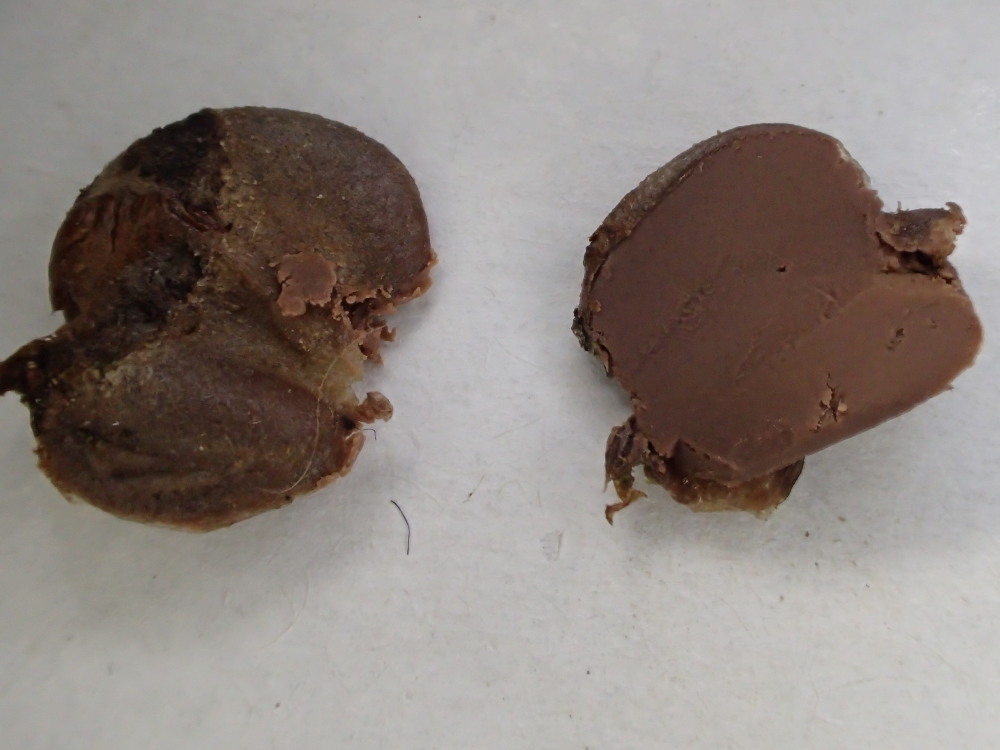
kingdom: Protozoa
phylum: Mycetozoa
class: Myxomycetes
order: Cribrariales
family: Tubiferaceae
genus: Lycogala
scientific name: Lycogala epidendrum
